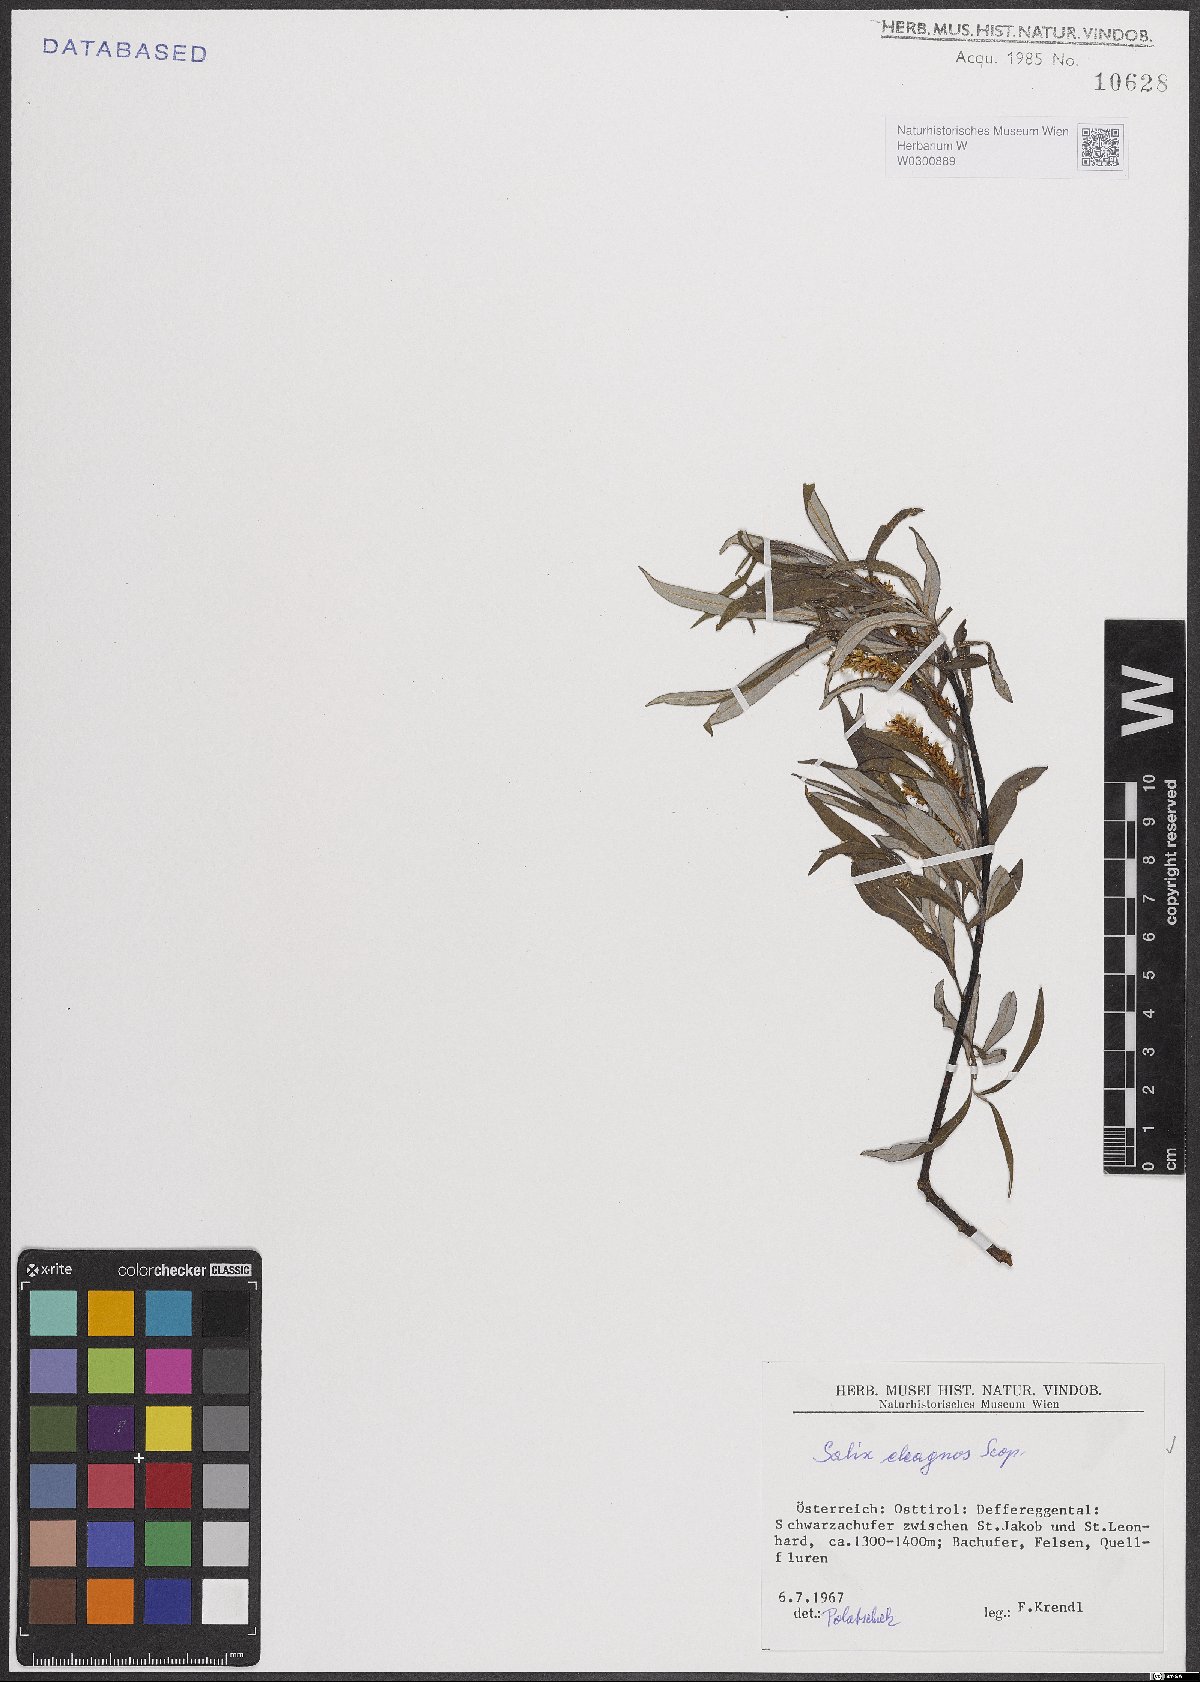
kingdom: Plantae
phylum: Tracheophyta
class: Magnoliopsida
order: Malpighiales
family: Salicaceae
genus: Salix
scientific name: Salix eleagnos
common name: Elaeagnus willow
